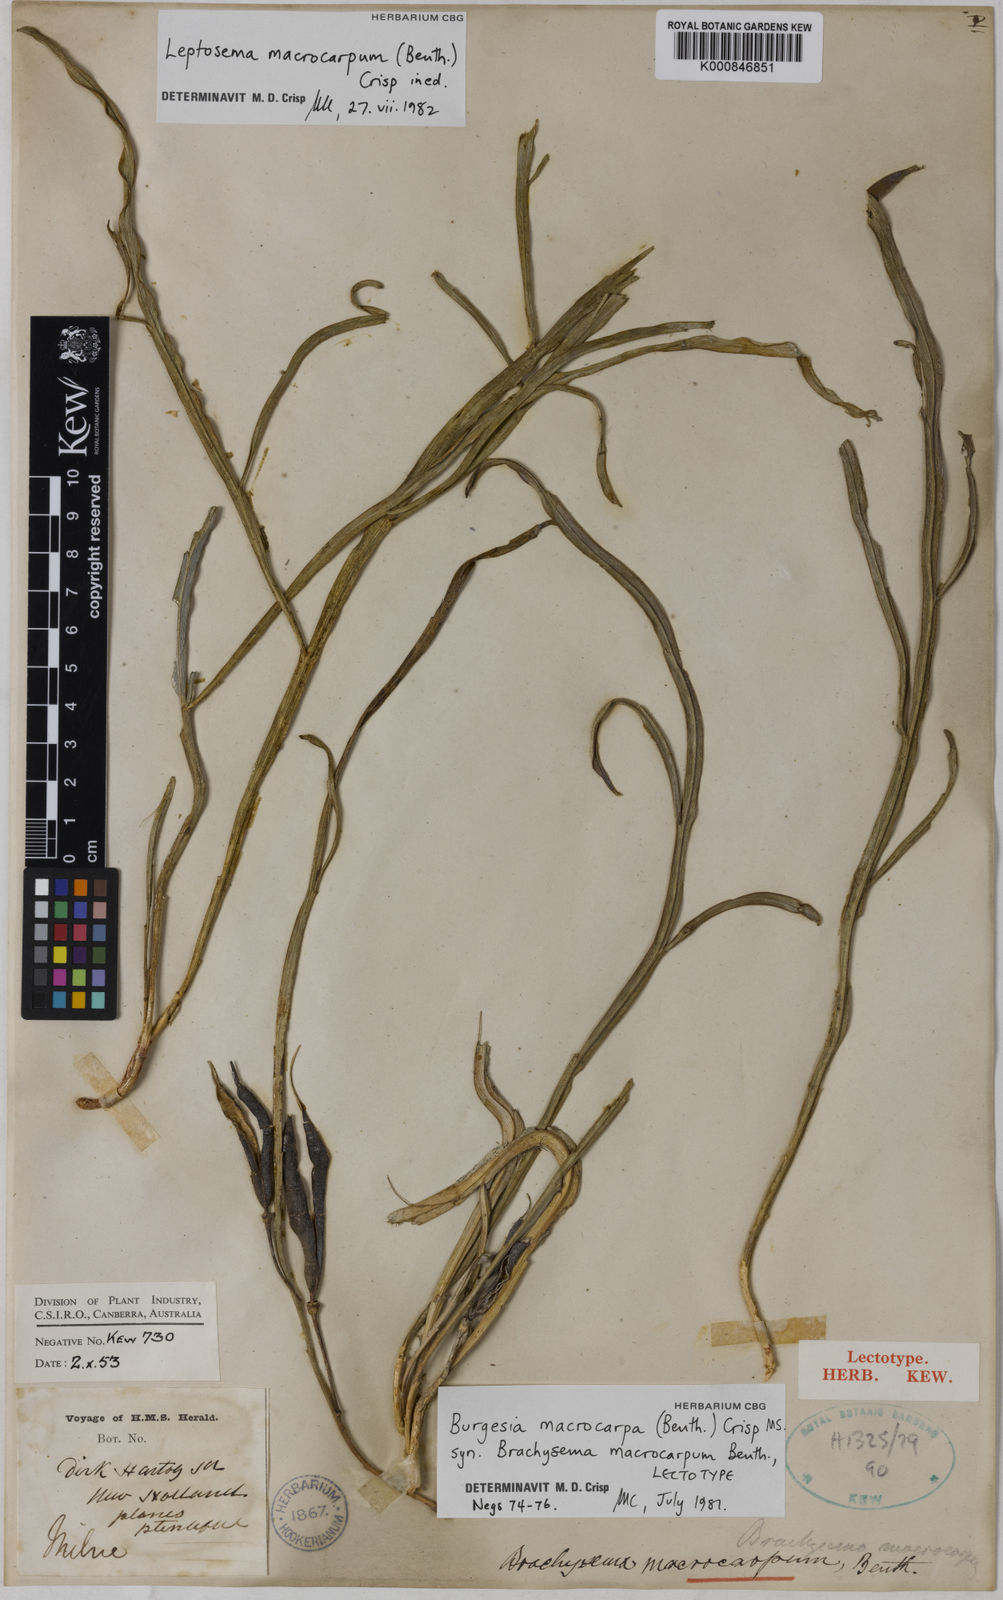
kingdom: Plantae
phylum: Tracheophyta
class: Magnoliopsida
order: Fabales
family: Fabaceae
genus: Leptosema
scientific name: Leptosema macrocarpum
